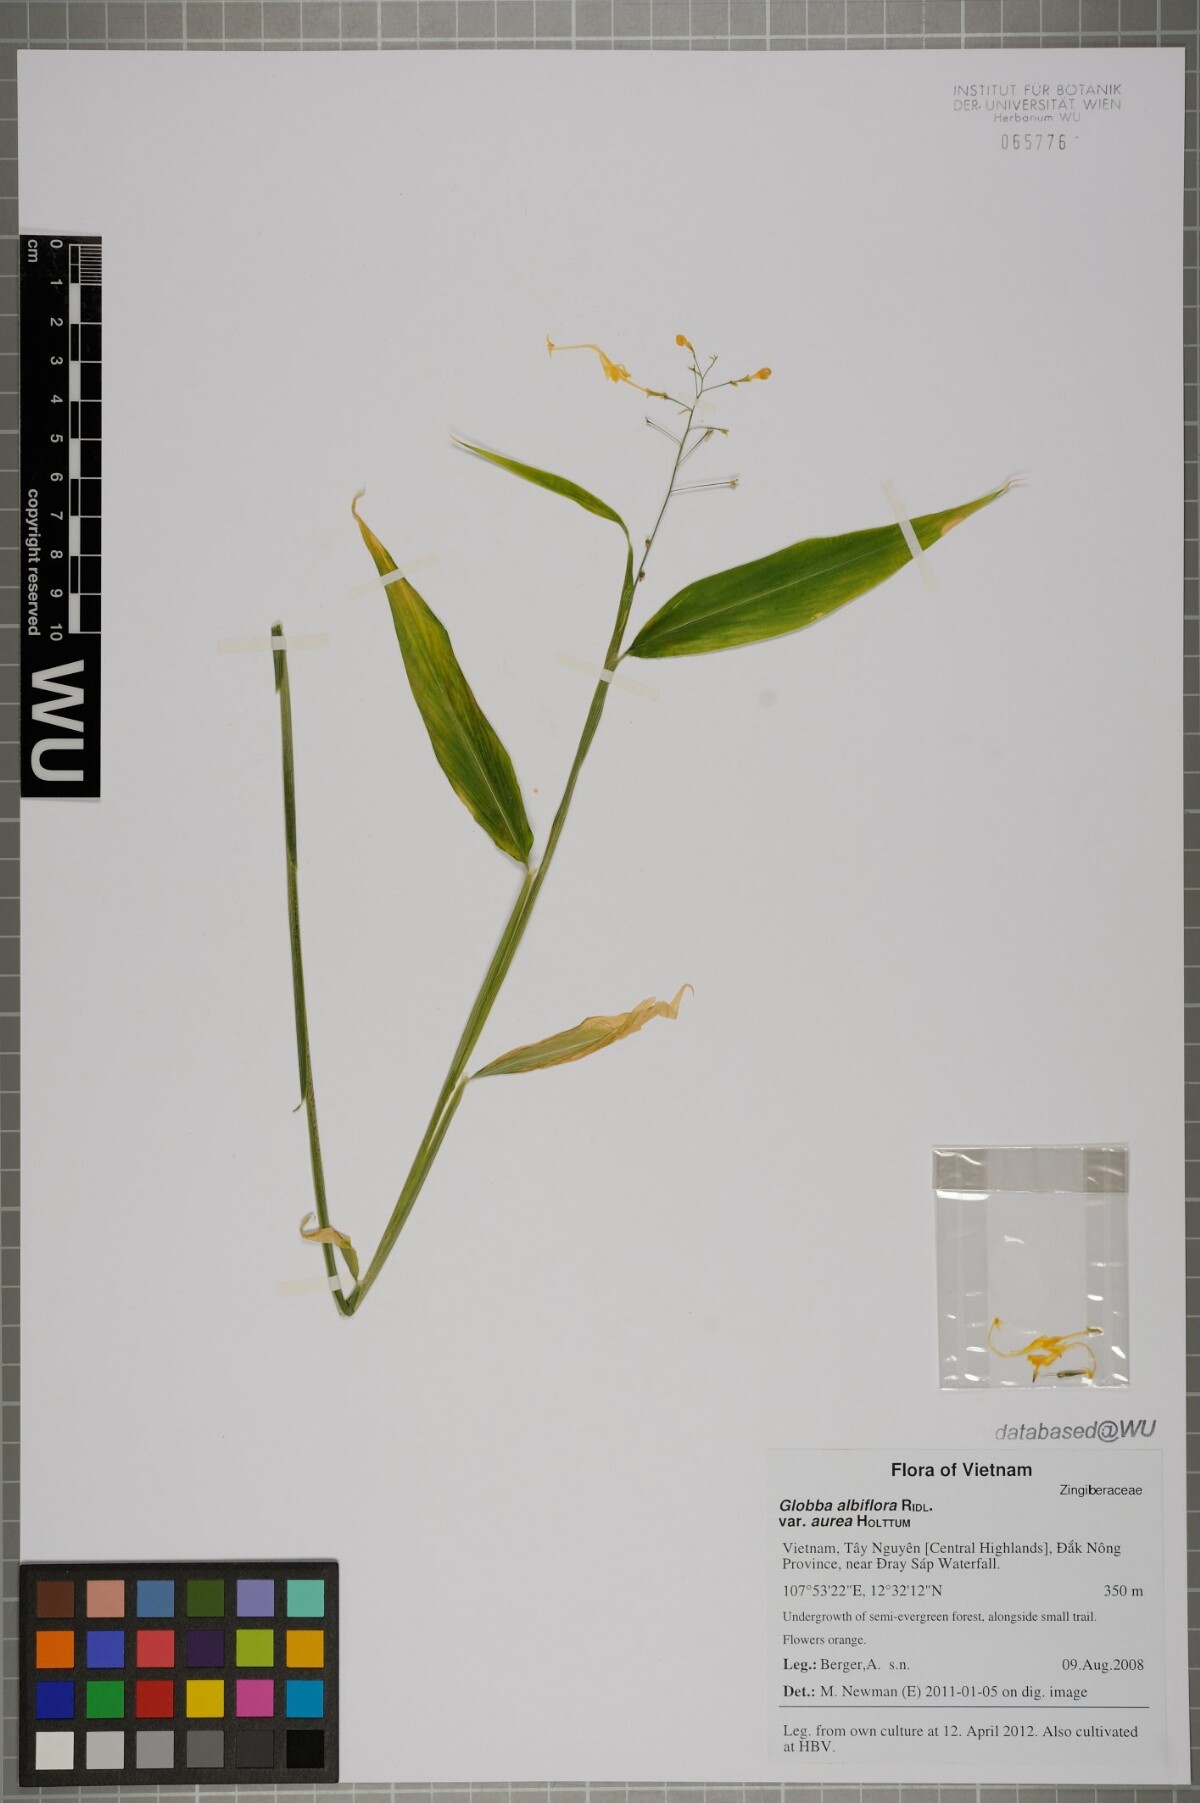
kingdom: Plantae
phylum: Tracheophyta
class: Liliopsida
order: Zingiberales
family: Zingiberaceae
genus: Globba
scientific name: Globba newmanii
